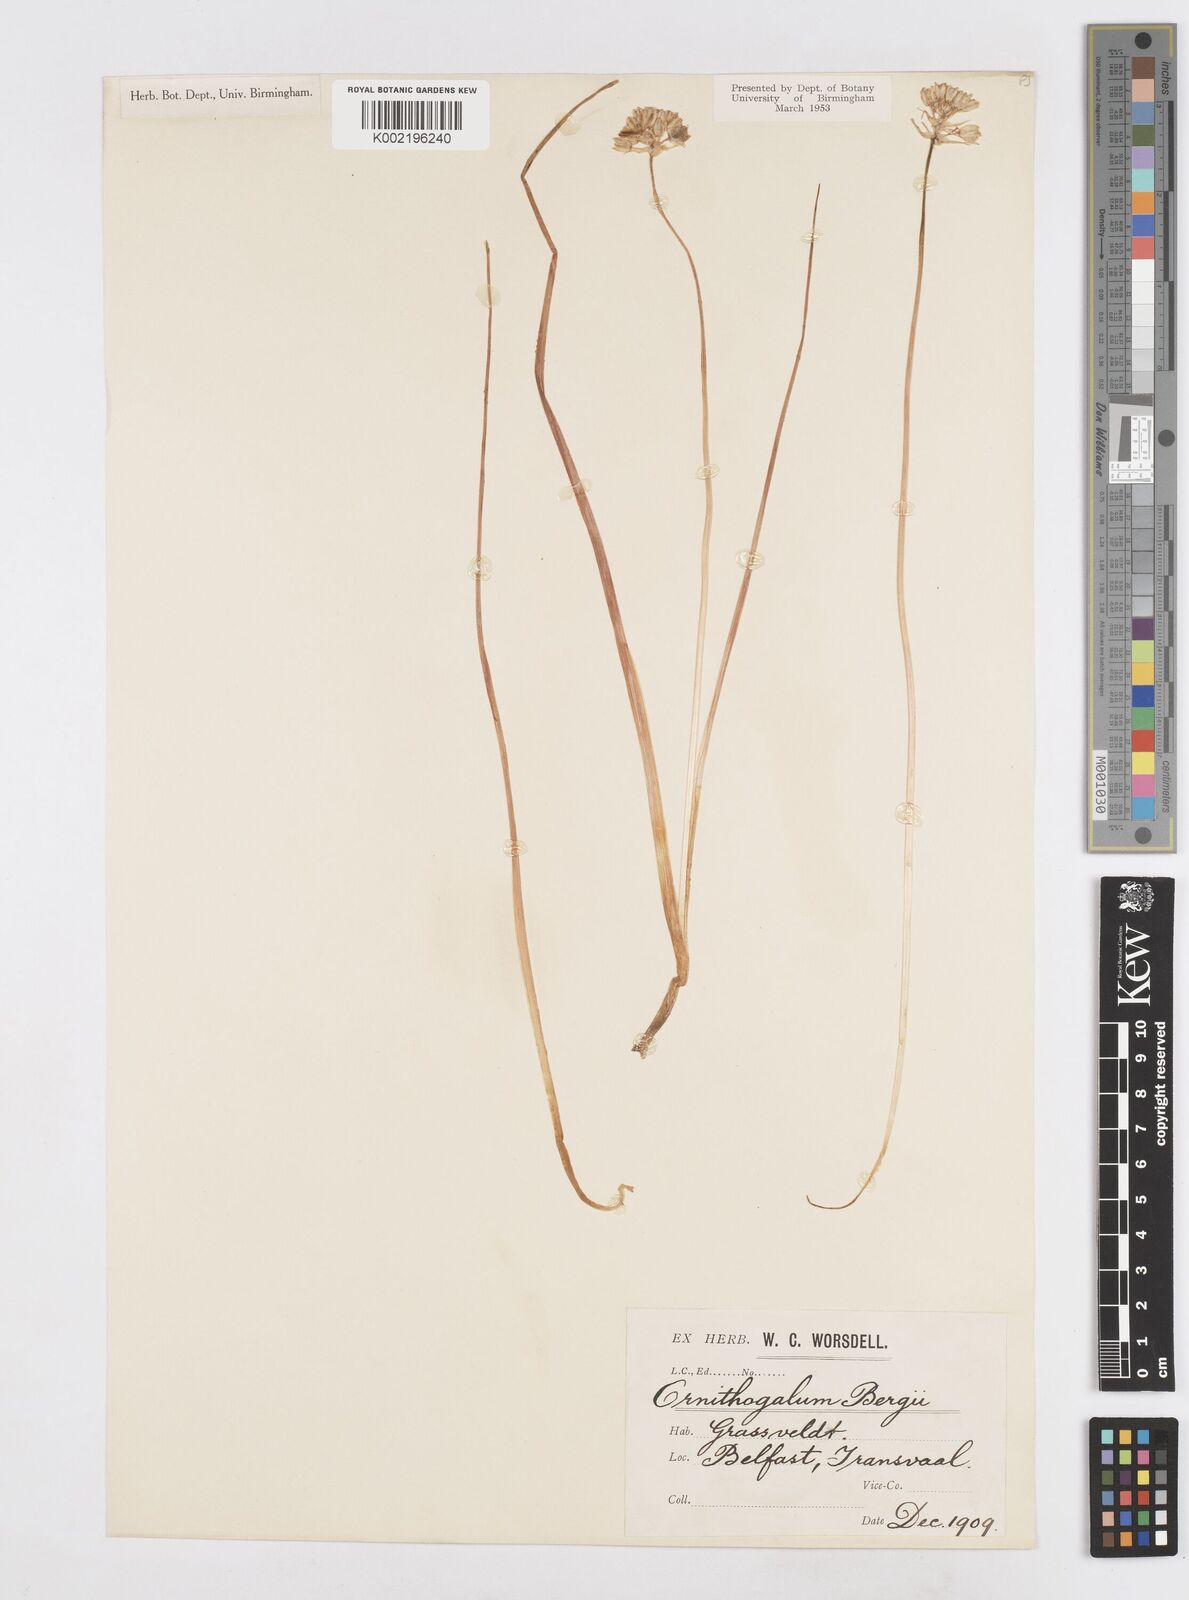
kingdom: Plantae
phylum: Tracheophyta
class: Liliopsida
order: Asparagales
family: Asparagaceae
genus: Ornithogalum
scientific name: Ornithogalum hispidum
